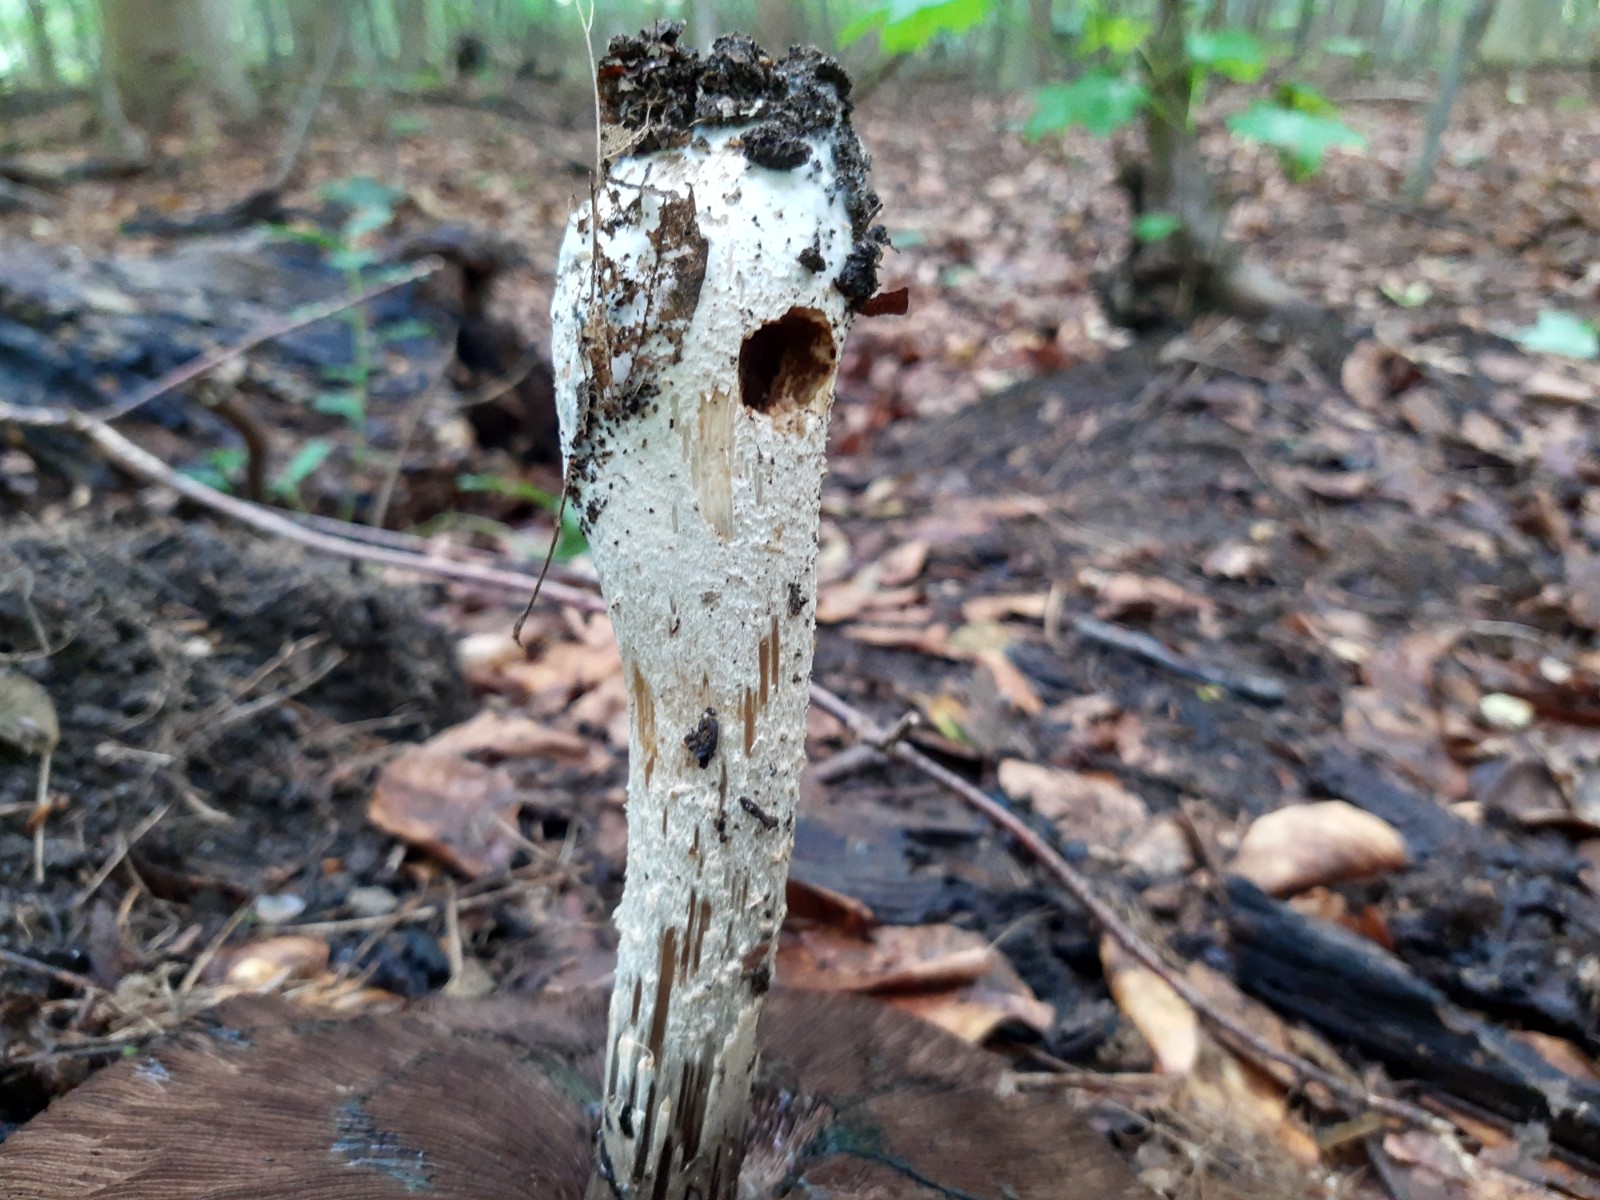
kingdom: Fungi
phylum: Basidiomycota
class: Agaricomycetes
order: Agaricales
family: Agaricaceae
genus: Agaricus
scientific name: Agaricus augustus
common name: prægtig champignon
